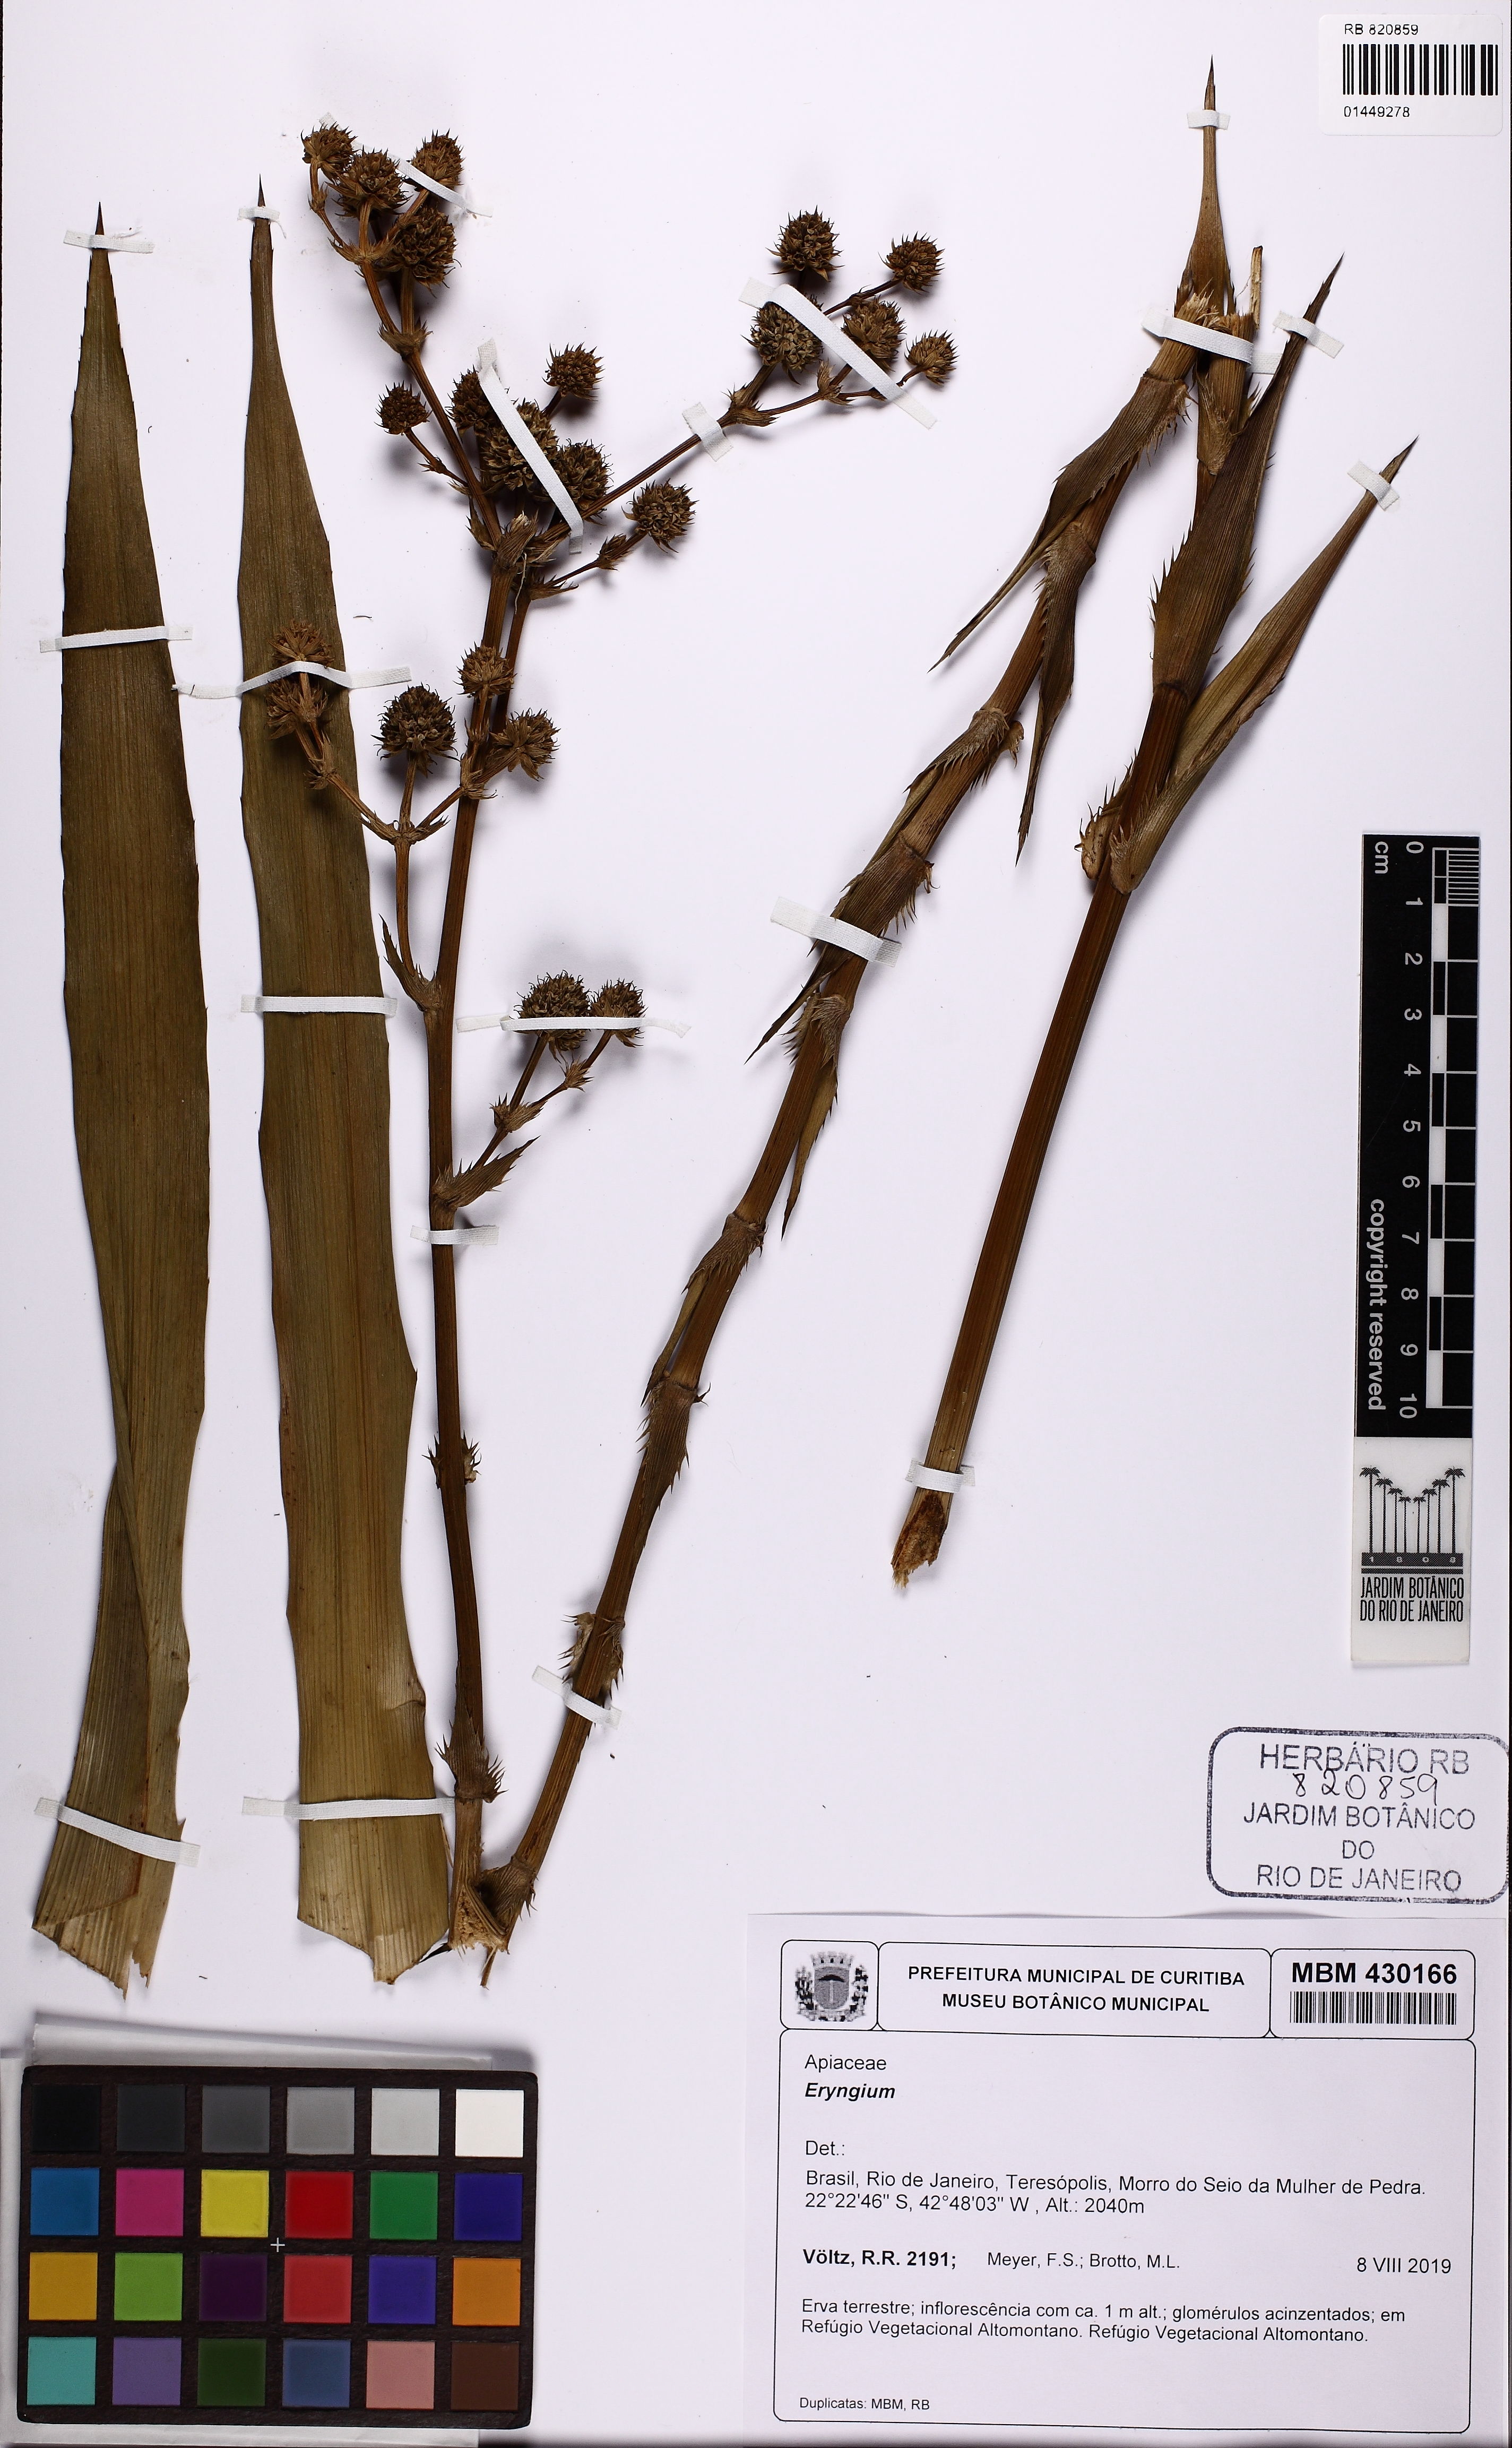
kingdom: Plantae
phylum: Tracheophyta
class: Magnoliopsida
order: Apiales
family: Apiaceae
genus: Eryngium
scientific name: Eryngium
